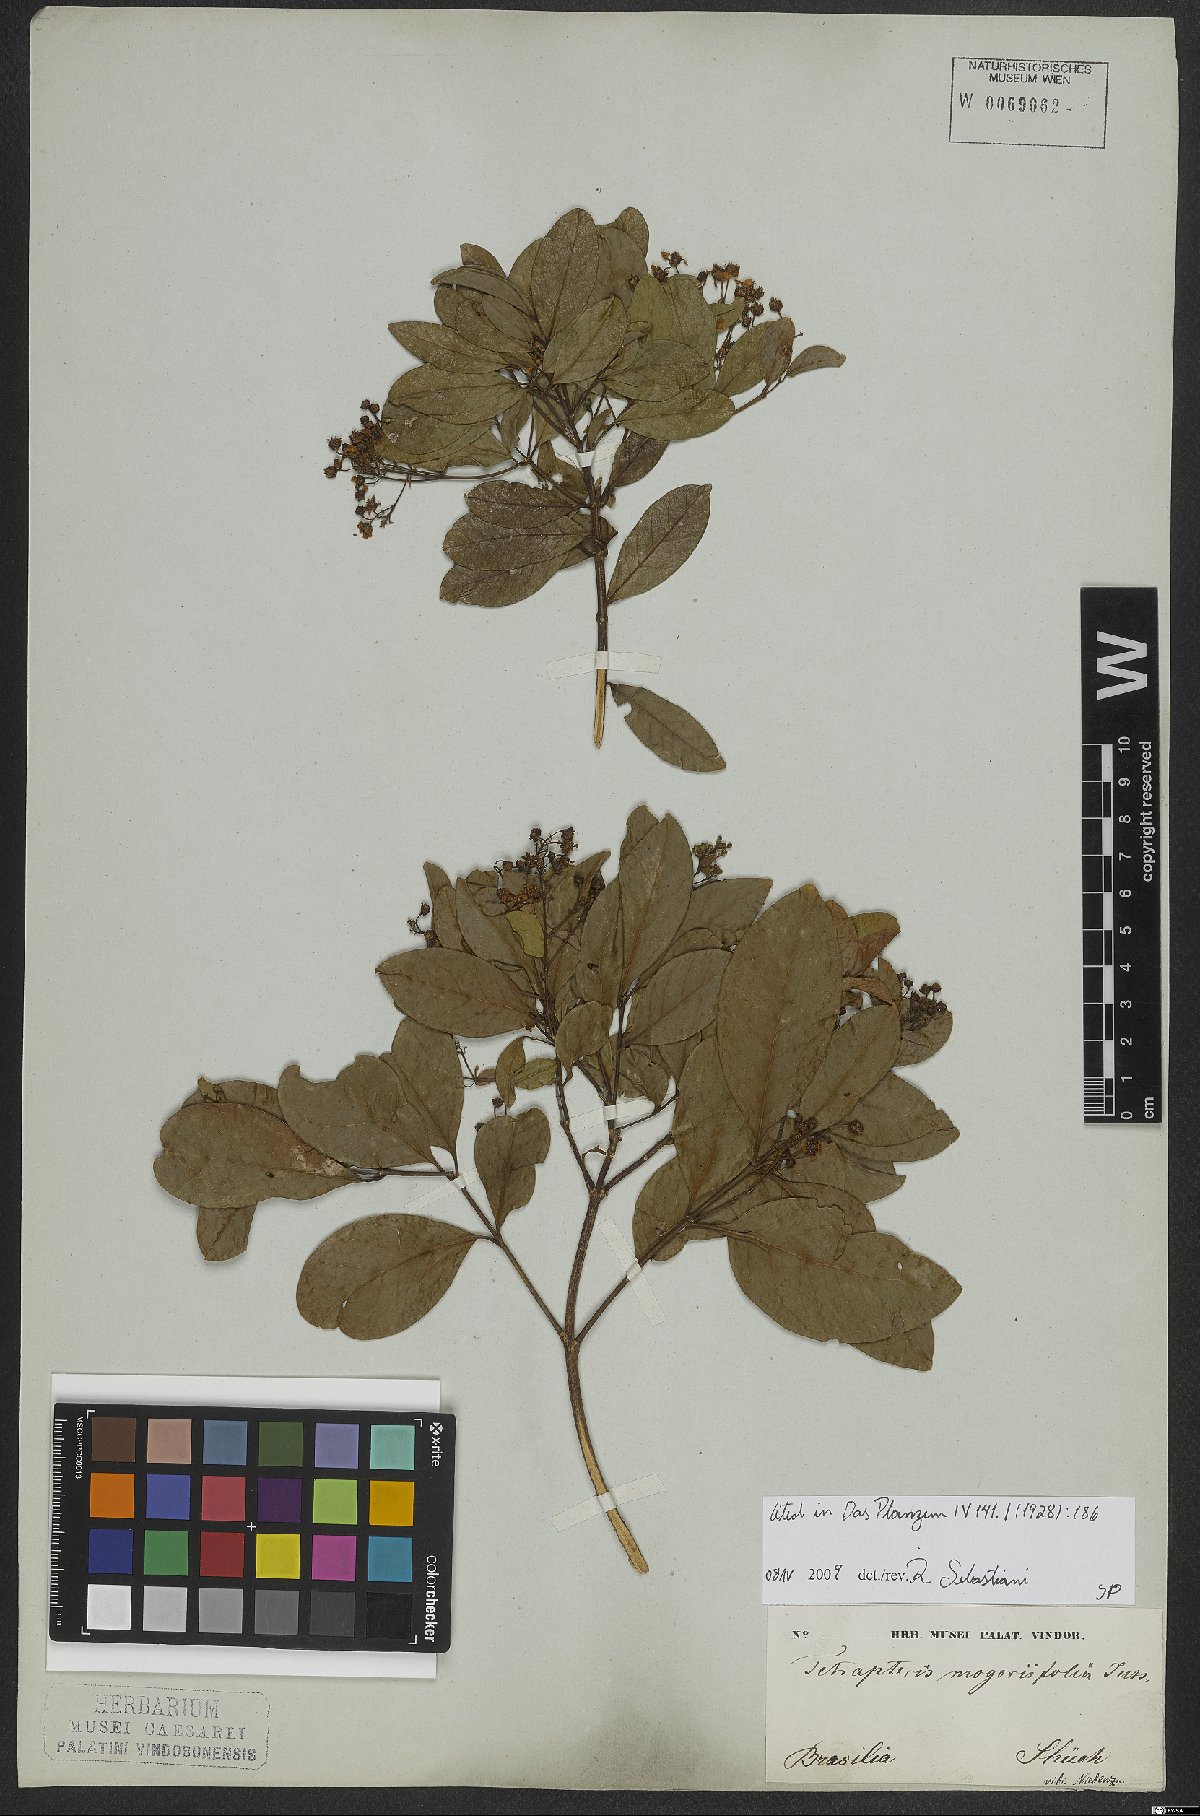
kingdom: Plantae
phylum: Tracheophyta
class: Magnoliopsida
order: Malpighiales
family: Malpighiaceae
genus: Niedenzuella
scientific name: Niedenzuella mogoriifolia
